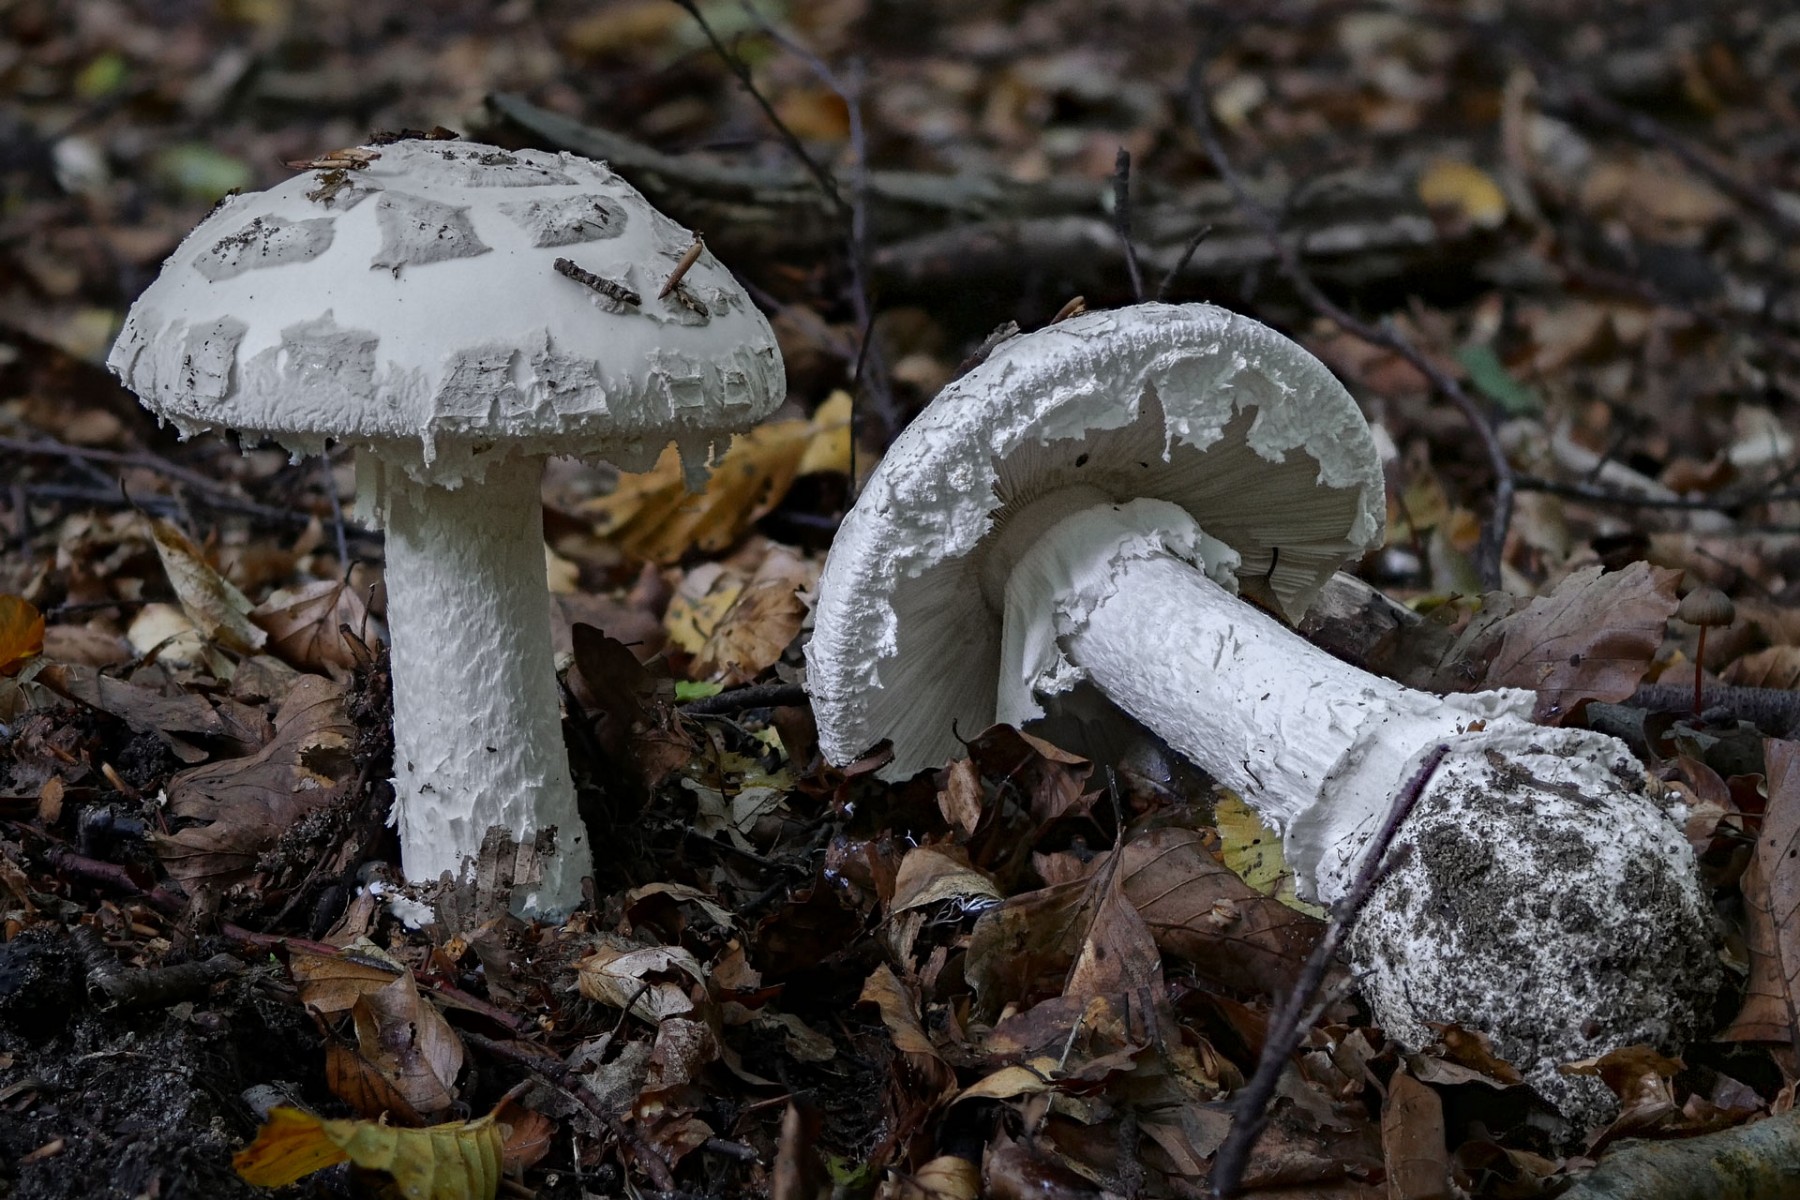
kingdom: Fungi
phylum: Basidiomycota
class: Agaricomycetes
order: Agaricales
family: Amanitaceae
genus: Amanita
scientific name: Amanita
